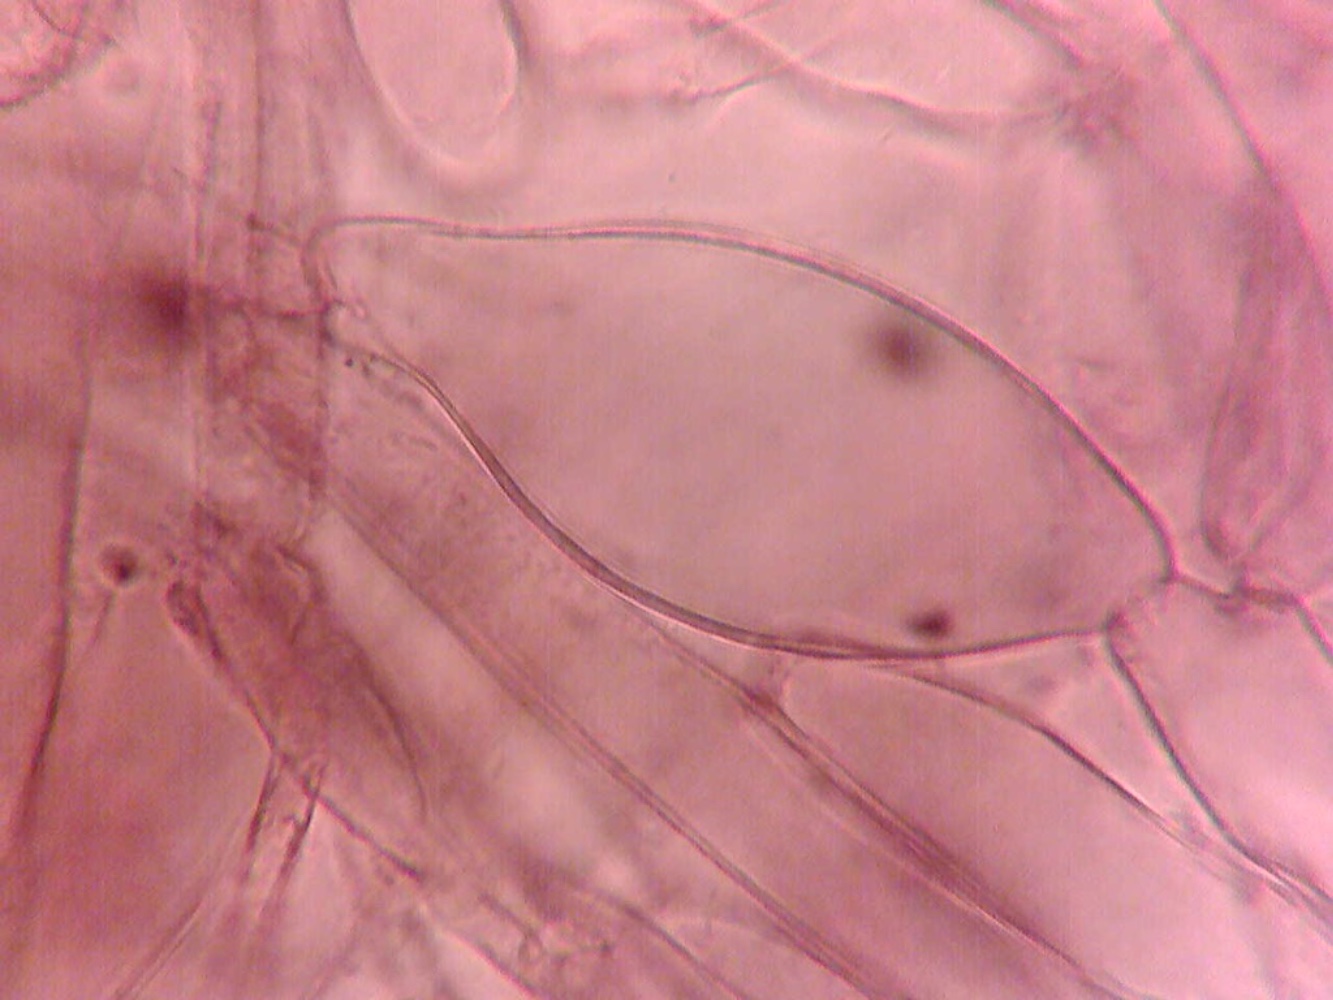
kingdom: Fungi
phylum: Basidiomycota
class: Agaricomycetes
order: Agaricales
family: Inocybaceae
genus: Inocybe
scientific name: Inocybe minimispora
